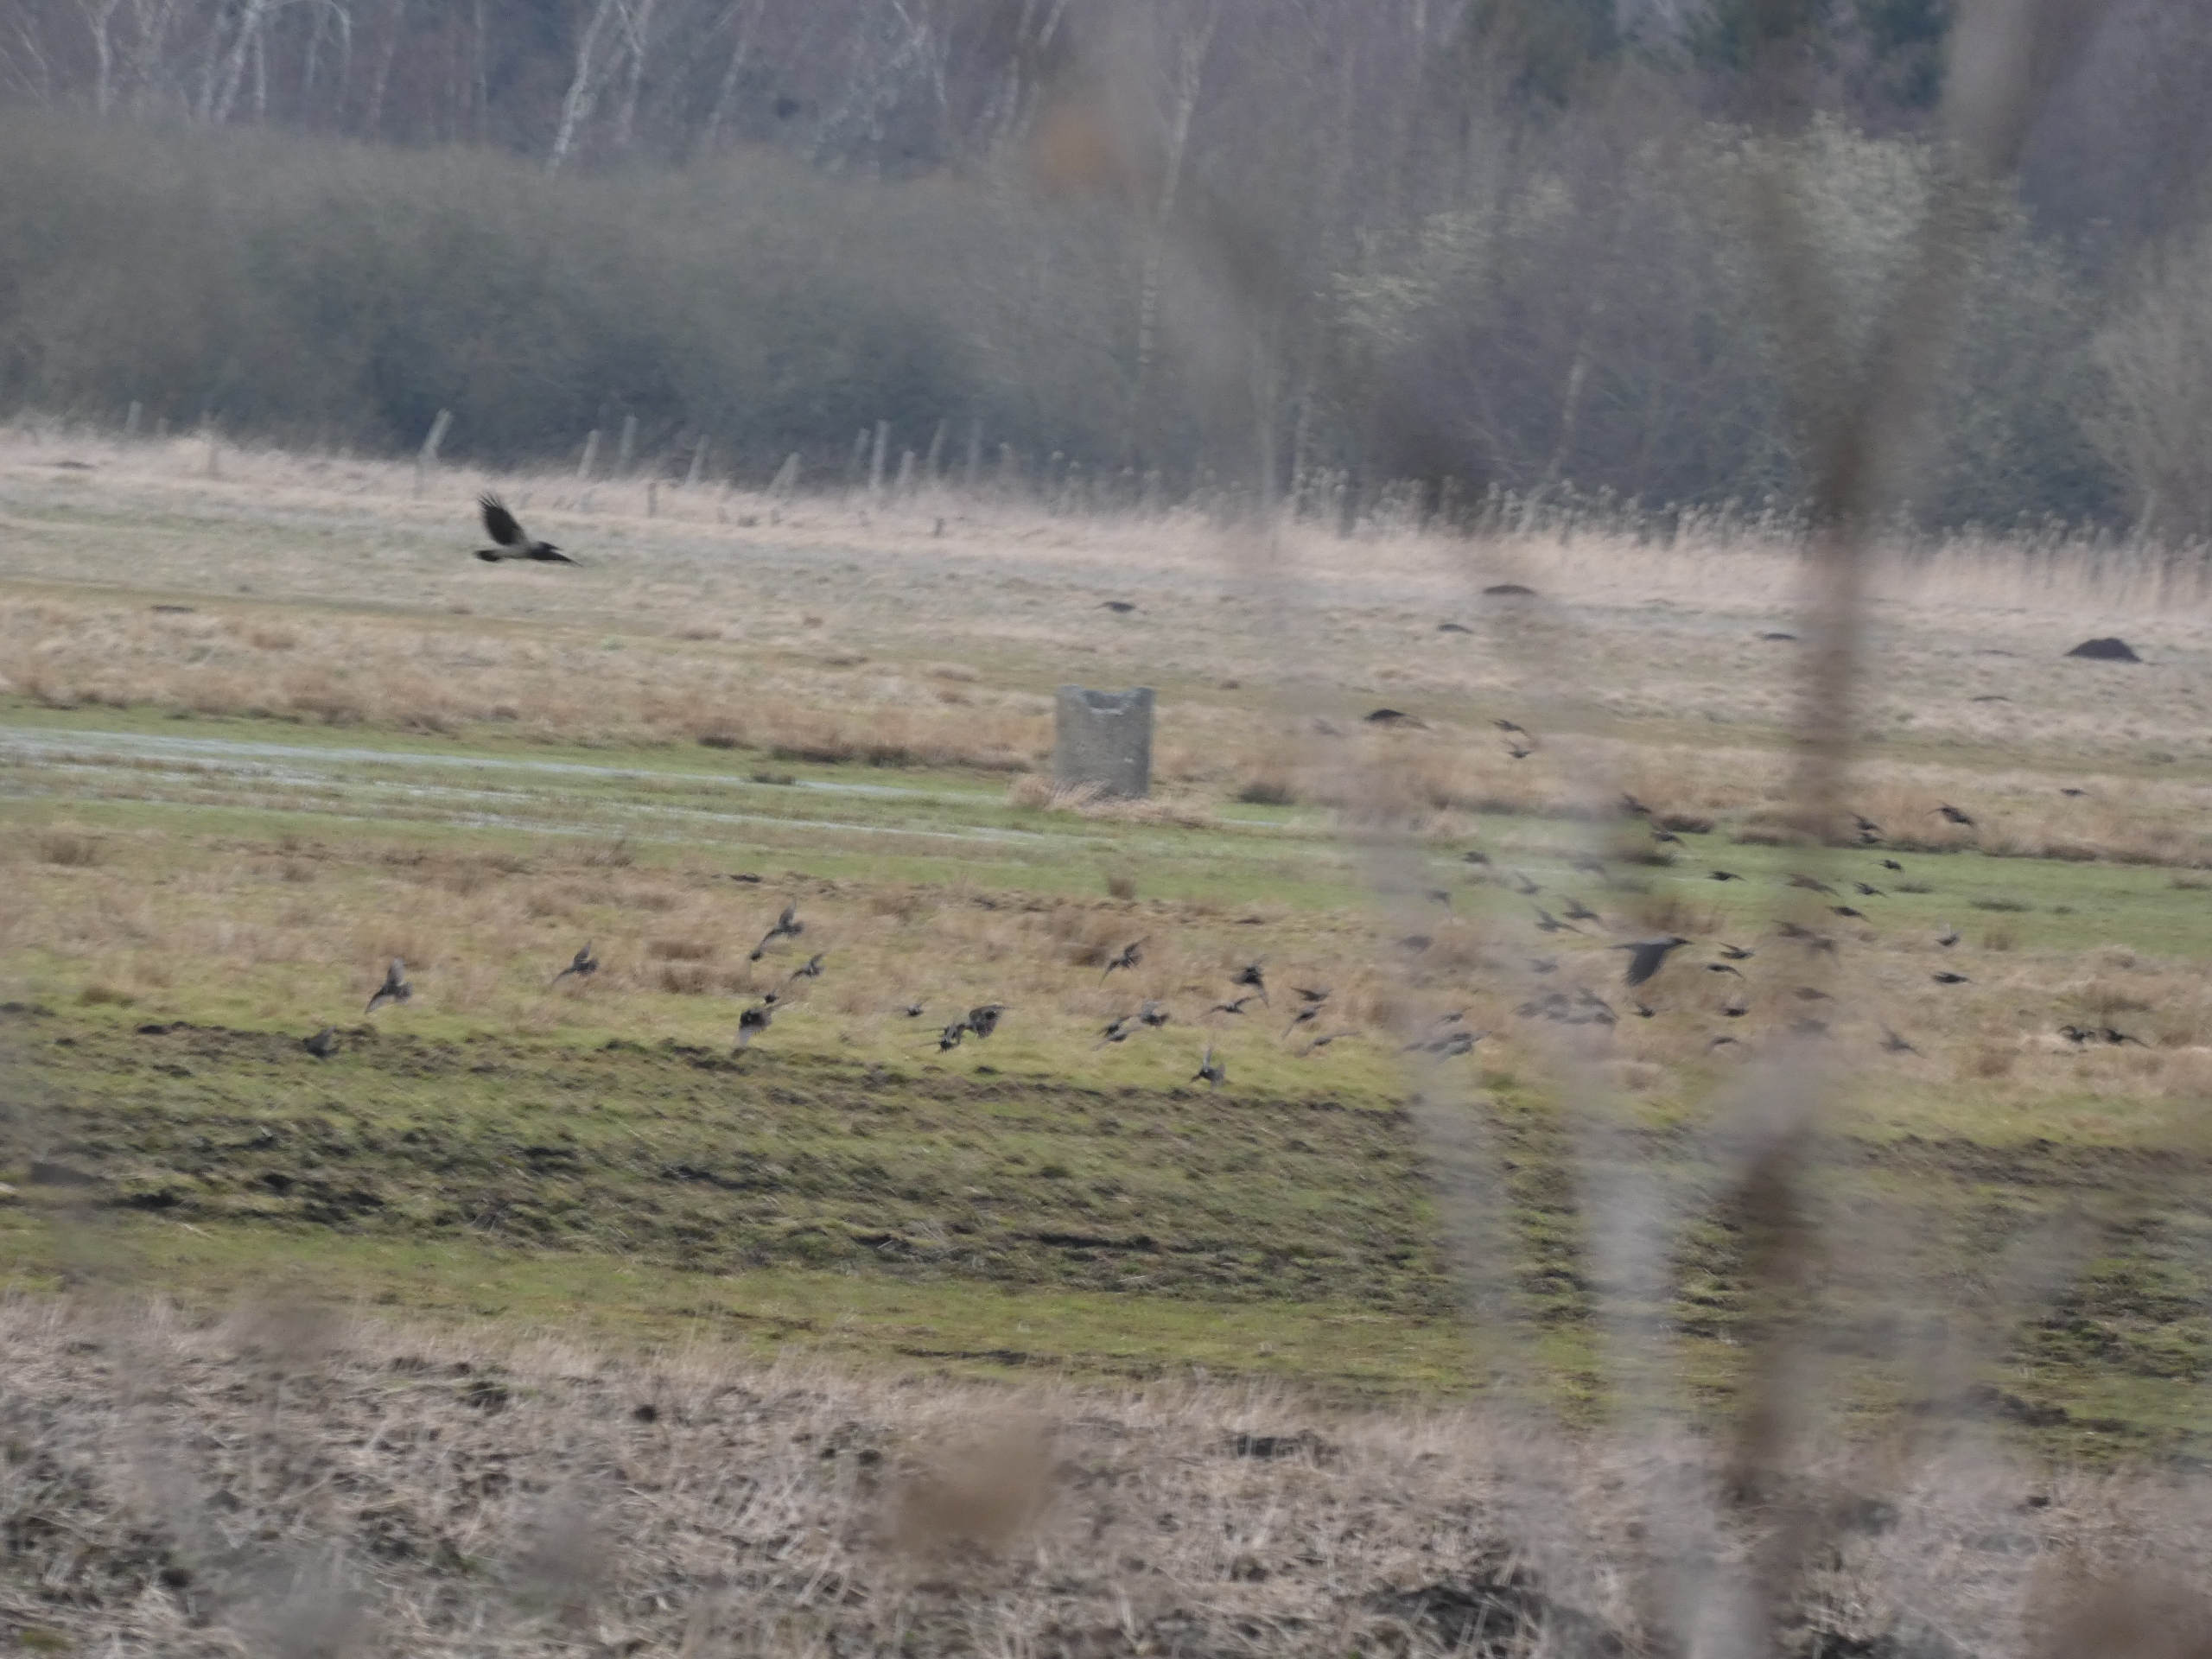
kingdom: Animalia
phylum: Chordata
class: Aves
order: Passeriformes
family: Sturnidae
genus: Sturnus
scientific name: Sturnus vulgaris
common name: Stær
